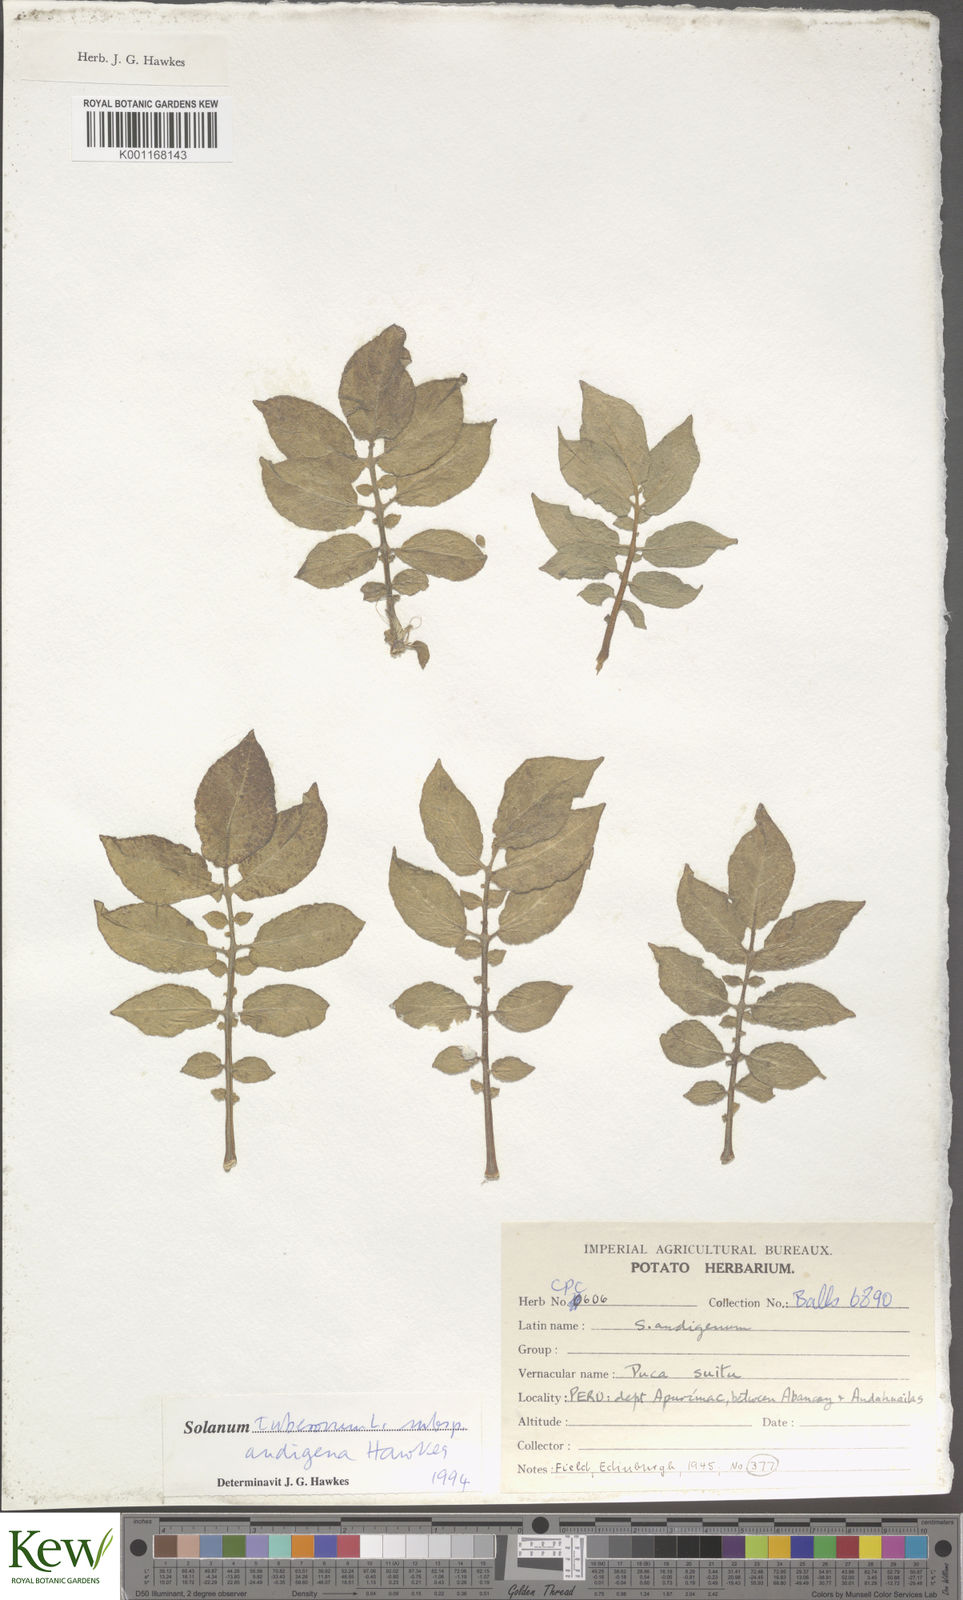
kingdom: Plantae
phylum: Tracheophyta
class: Magnoliopsida
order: Solanales
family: Solanaceae
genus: Solanum
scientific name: Solanum tuberosum
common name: Potato
